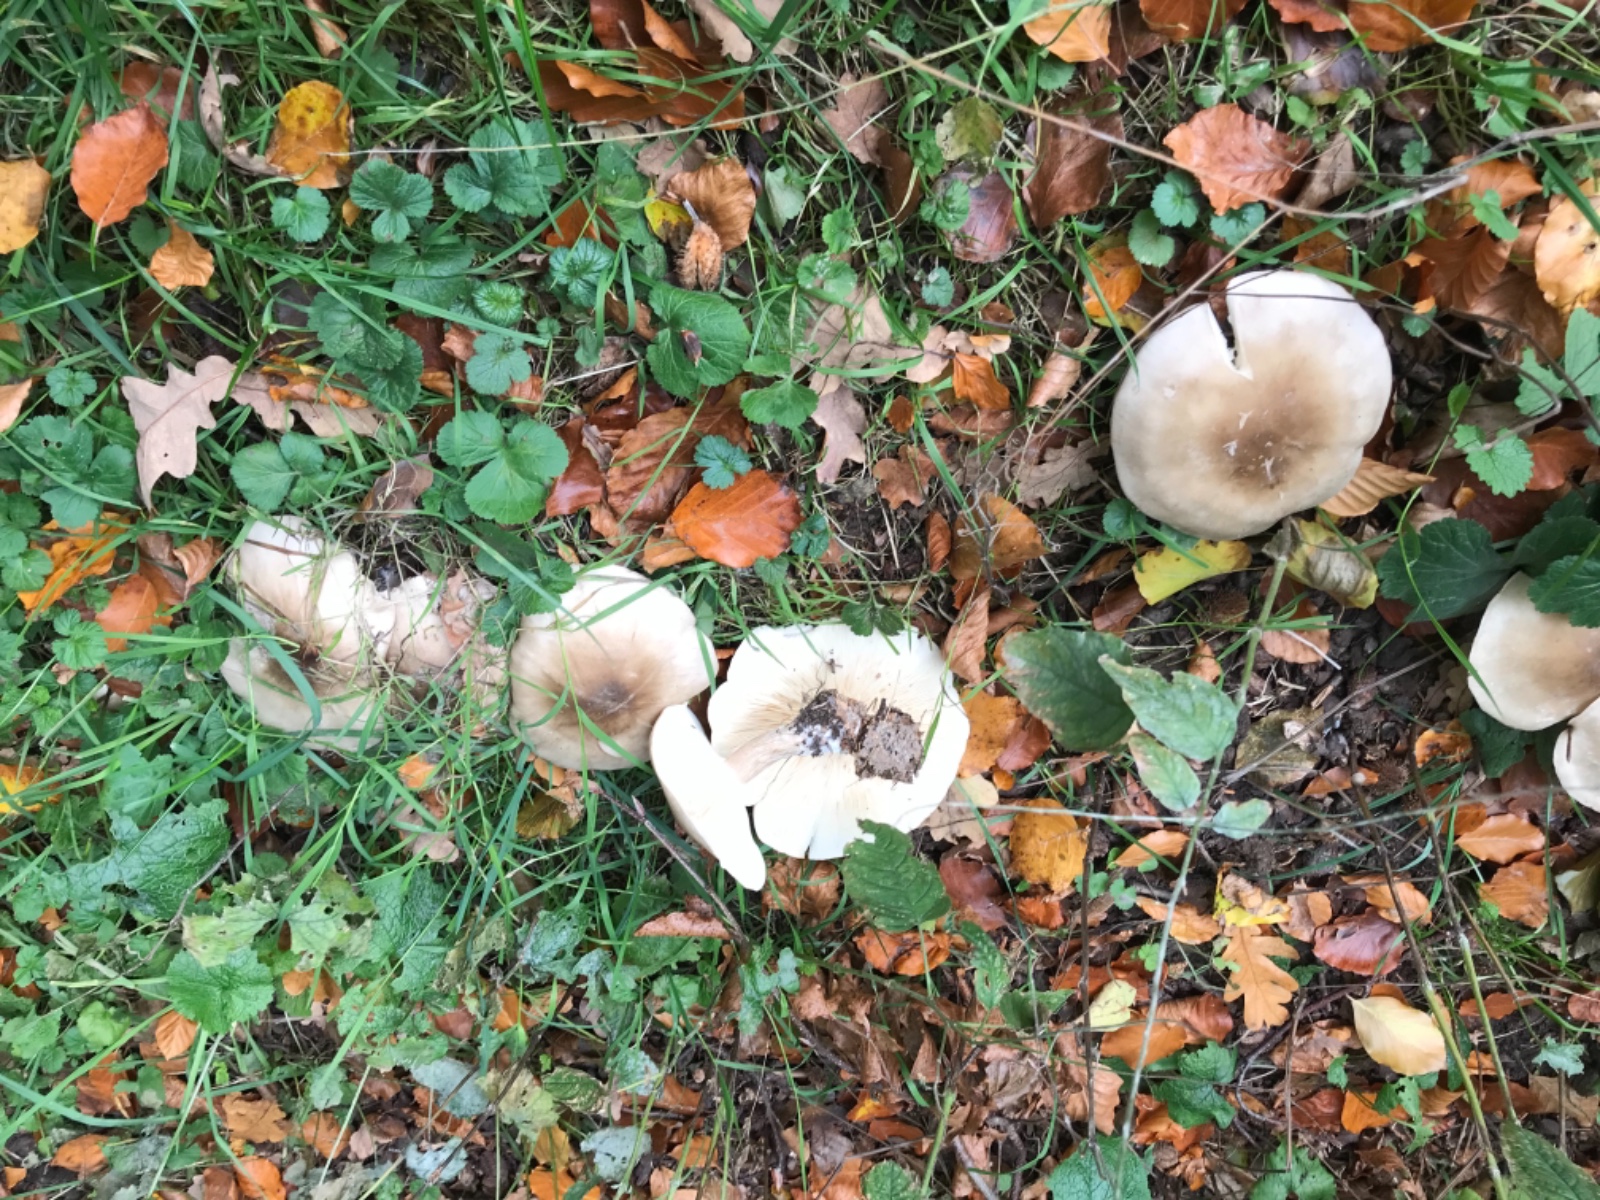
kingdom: Fungi
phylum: Basidiomycota
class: Agaricomycetes
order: Agaricales
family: Tricholomataceae
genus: Clitocybe
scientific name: Clitocybe nebularis
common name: tåge-tragthat
